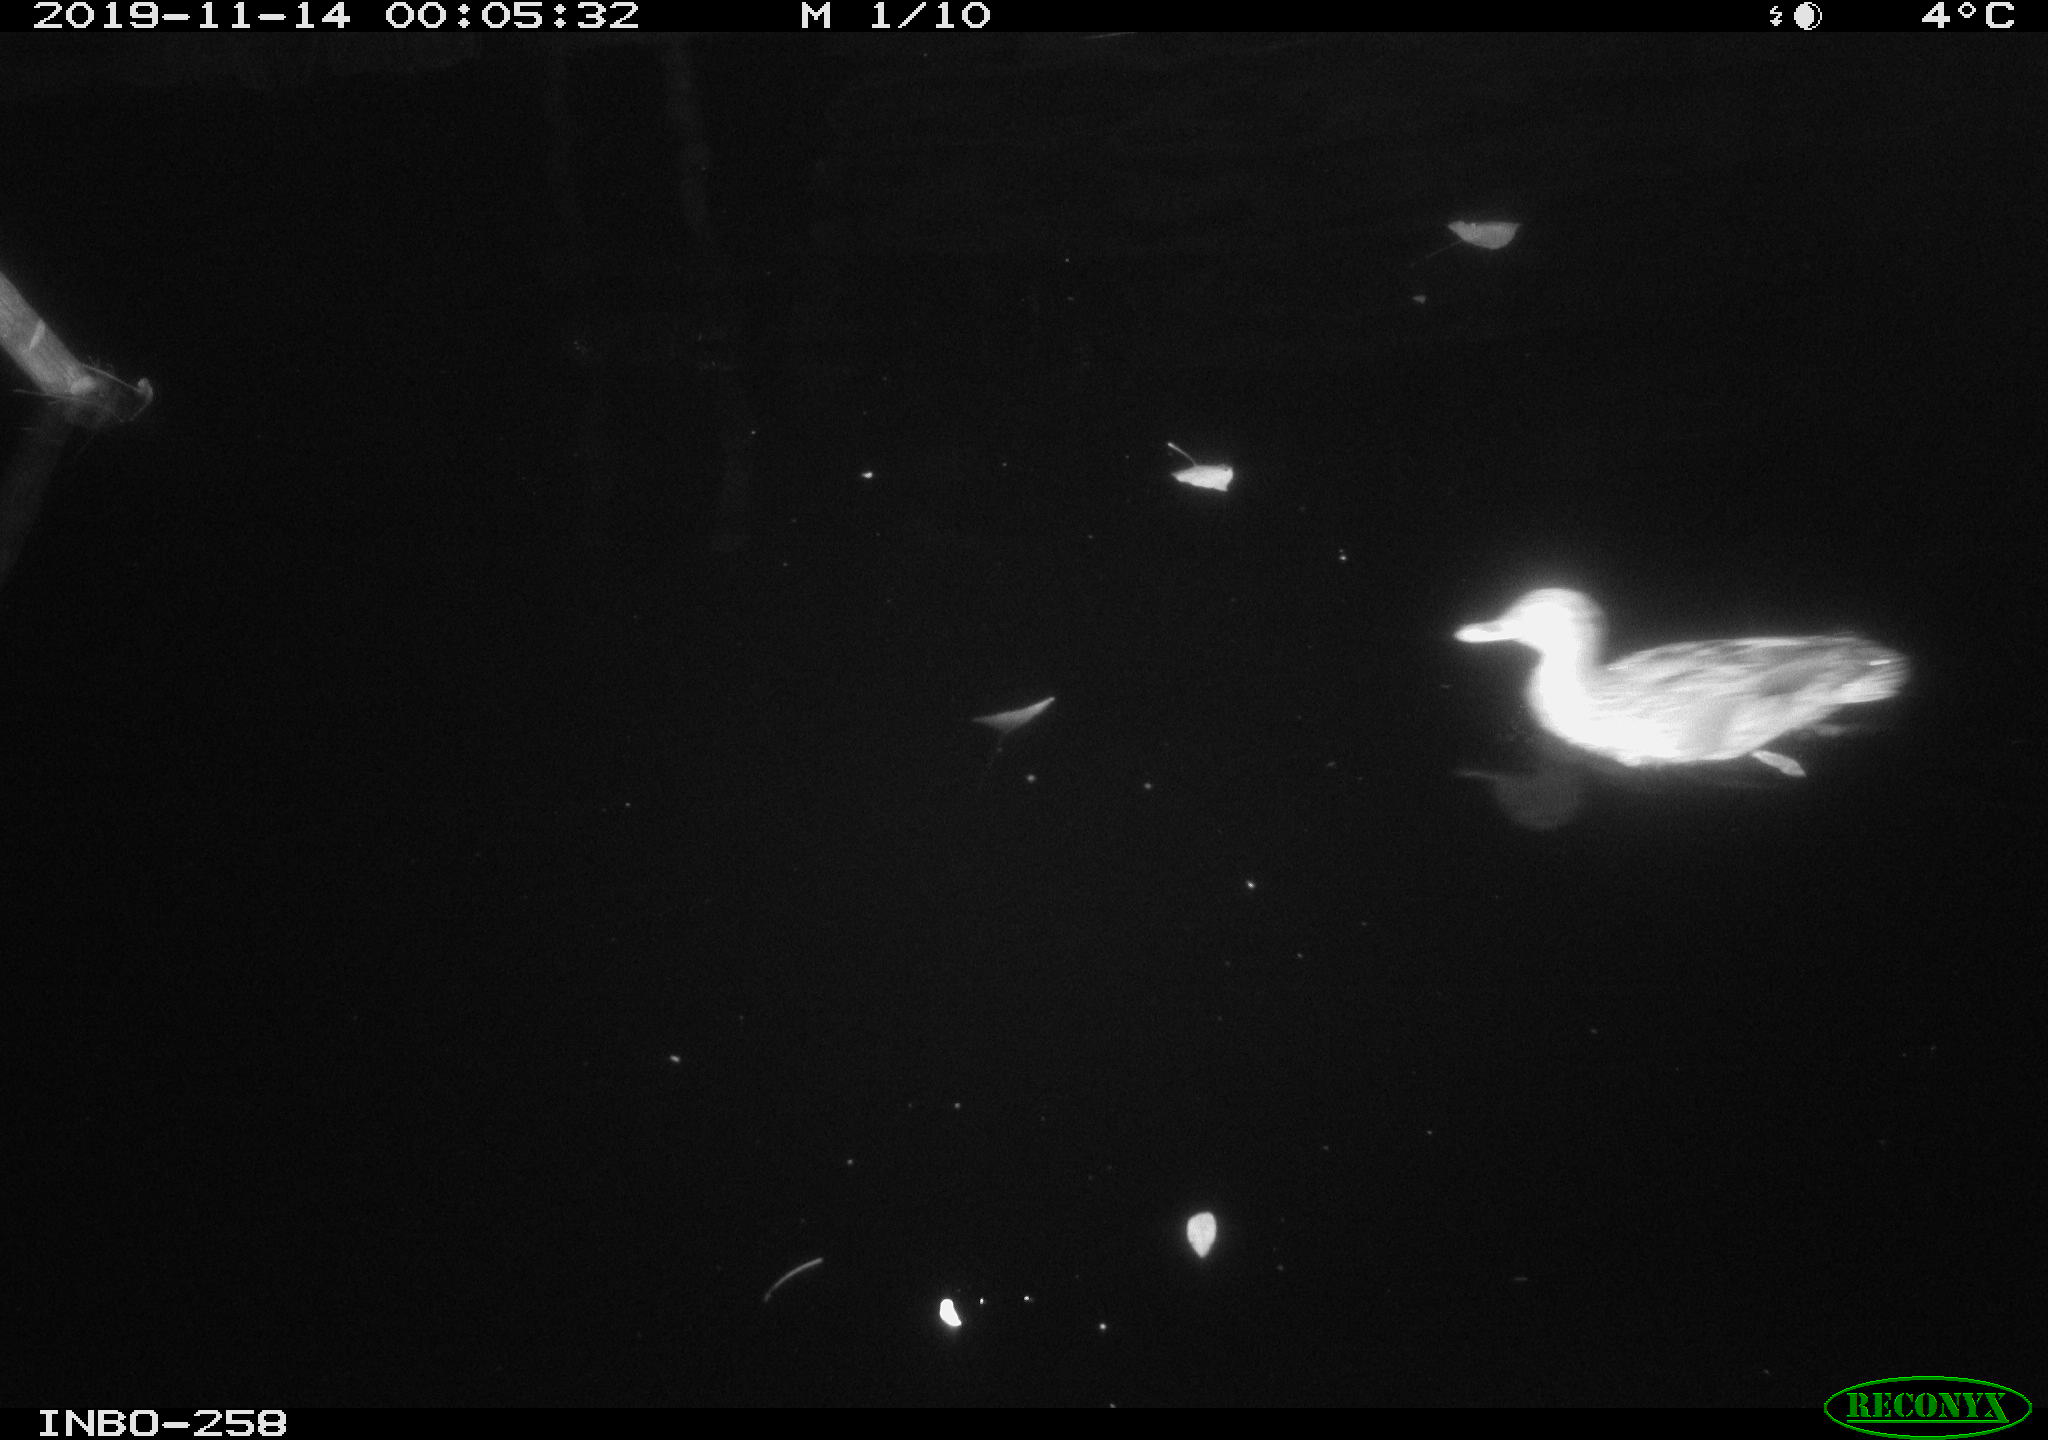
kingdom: Animalia
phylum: Chordata
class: Aves
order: Anseriformes
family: Anatidae
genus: Anas
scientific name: Anas platyrhynchos
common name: Mallard
